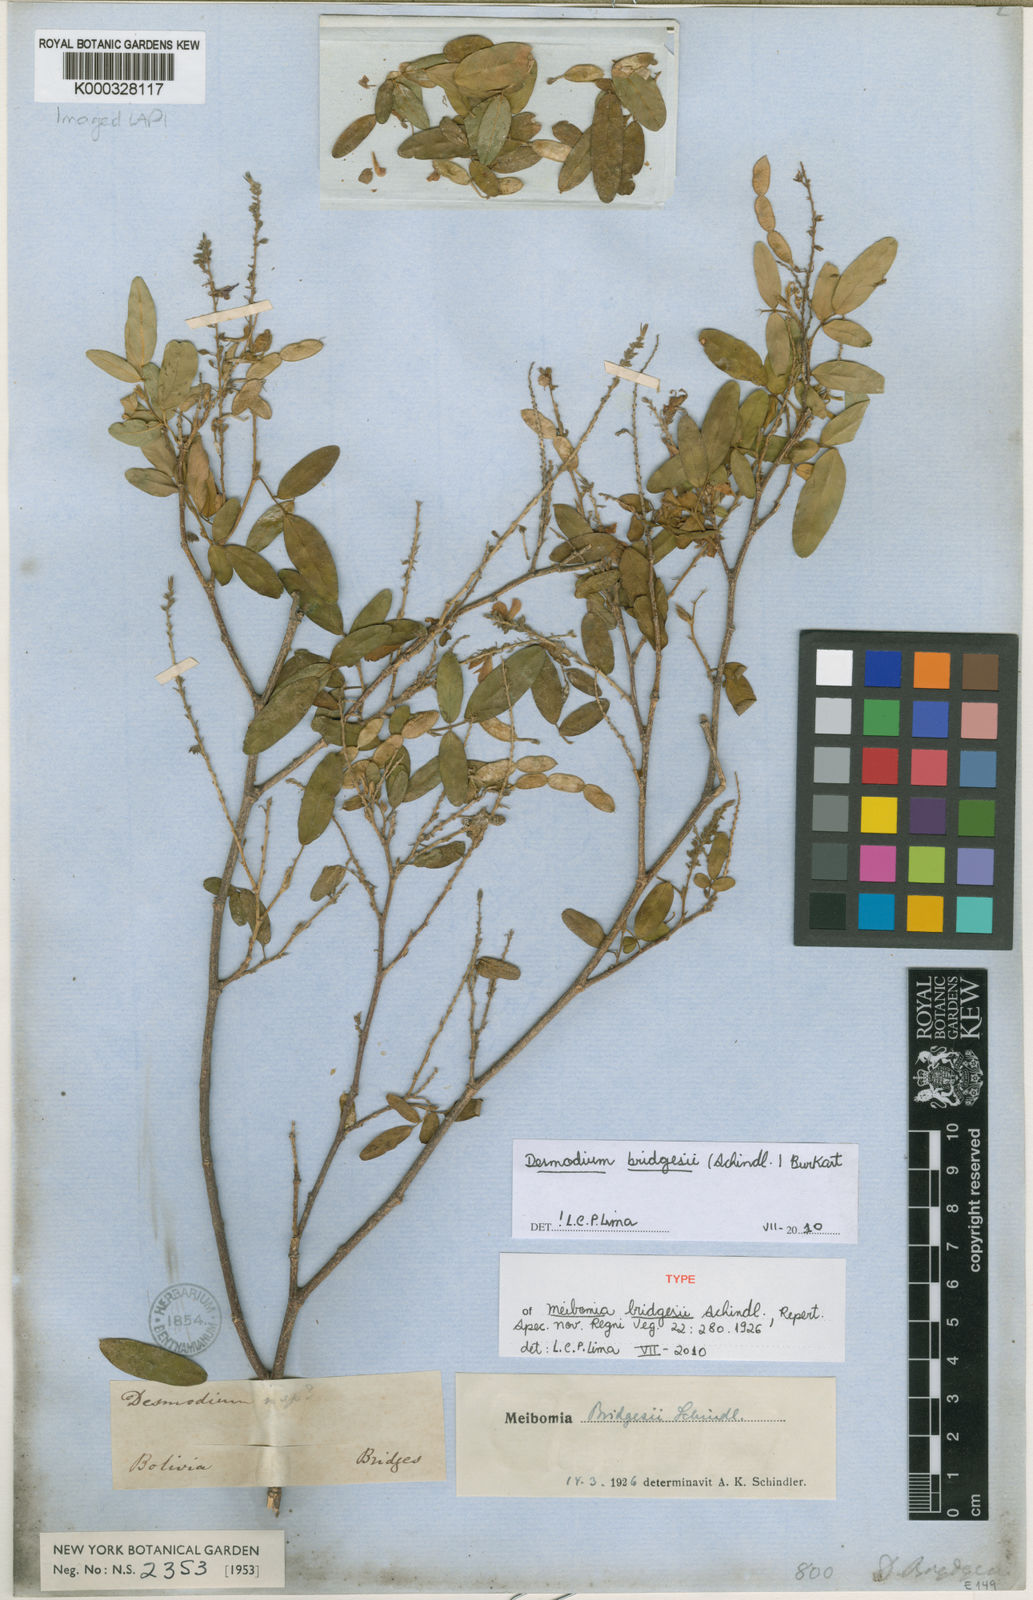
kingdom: Plantae
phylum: Tracheophyta
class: Magnoliopsida
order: Fabales
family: Fabaceae
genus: Desmodium
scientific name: Desmodium bridgesii
